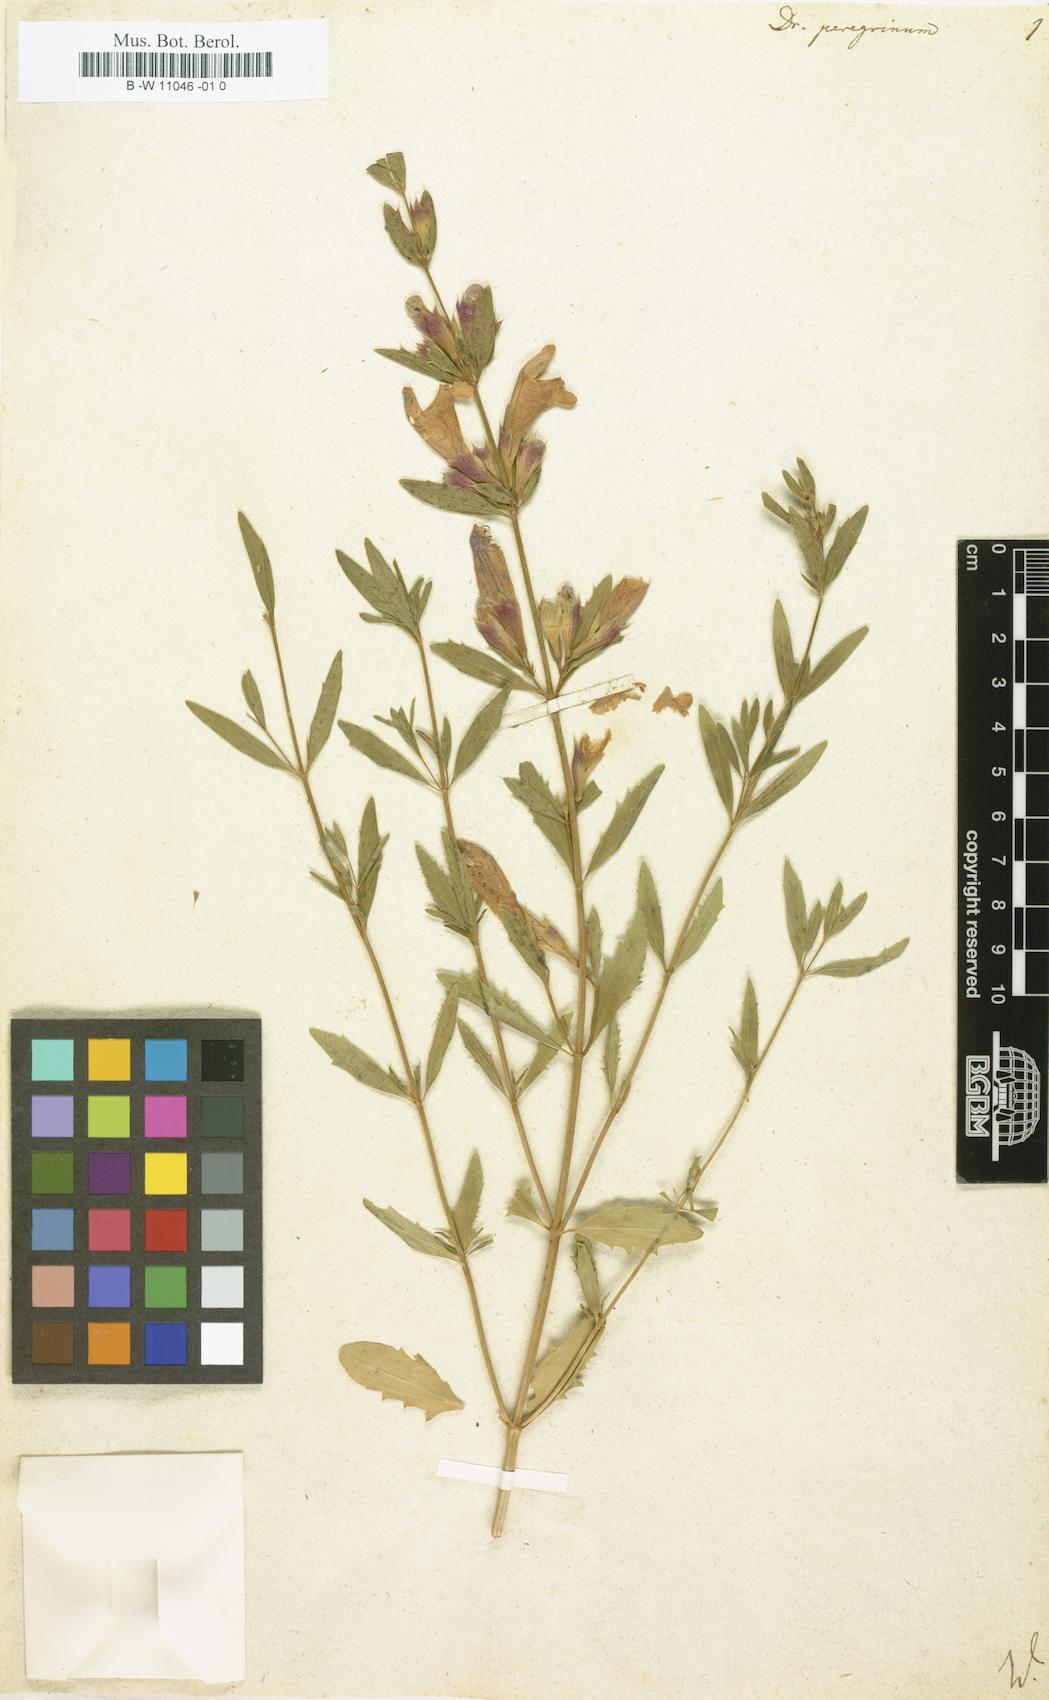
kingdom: Plantae
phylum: Tracheophyta
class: Magnoliopsida
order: Lamiales
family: Lamiaceae
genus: Dracocephalum
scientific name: Dracocephalum peregrinum
